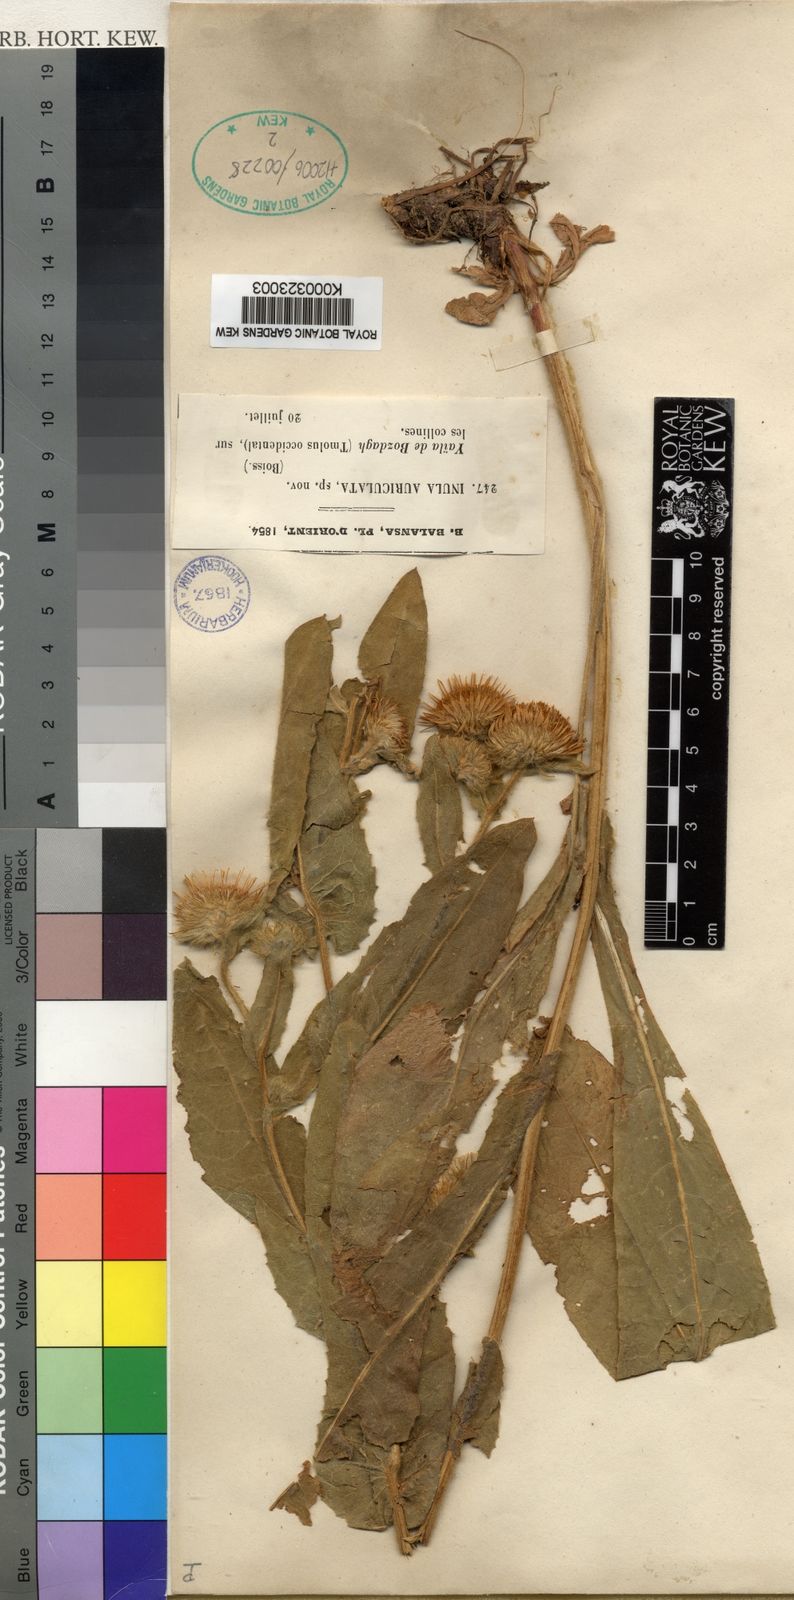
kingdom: Plantae
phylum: Tracheophyta
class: Magnoliopsida
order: Asterales
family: Asteraceae
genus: Pentanema
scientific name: Pentanema bifrons
